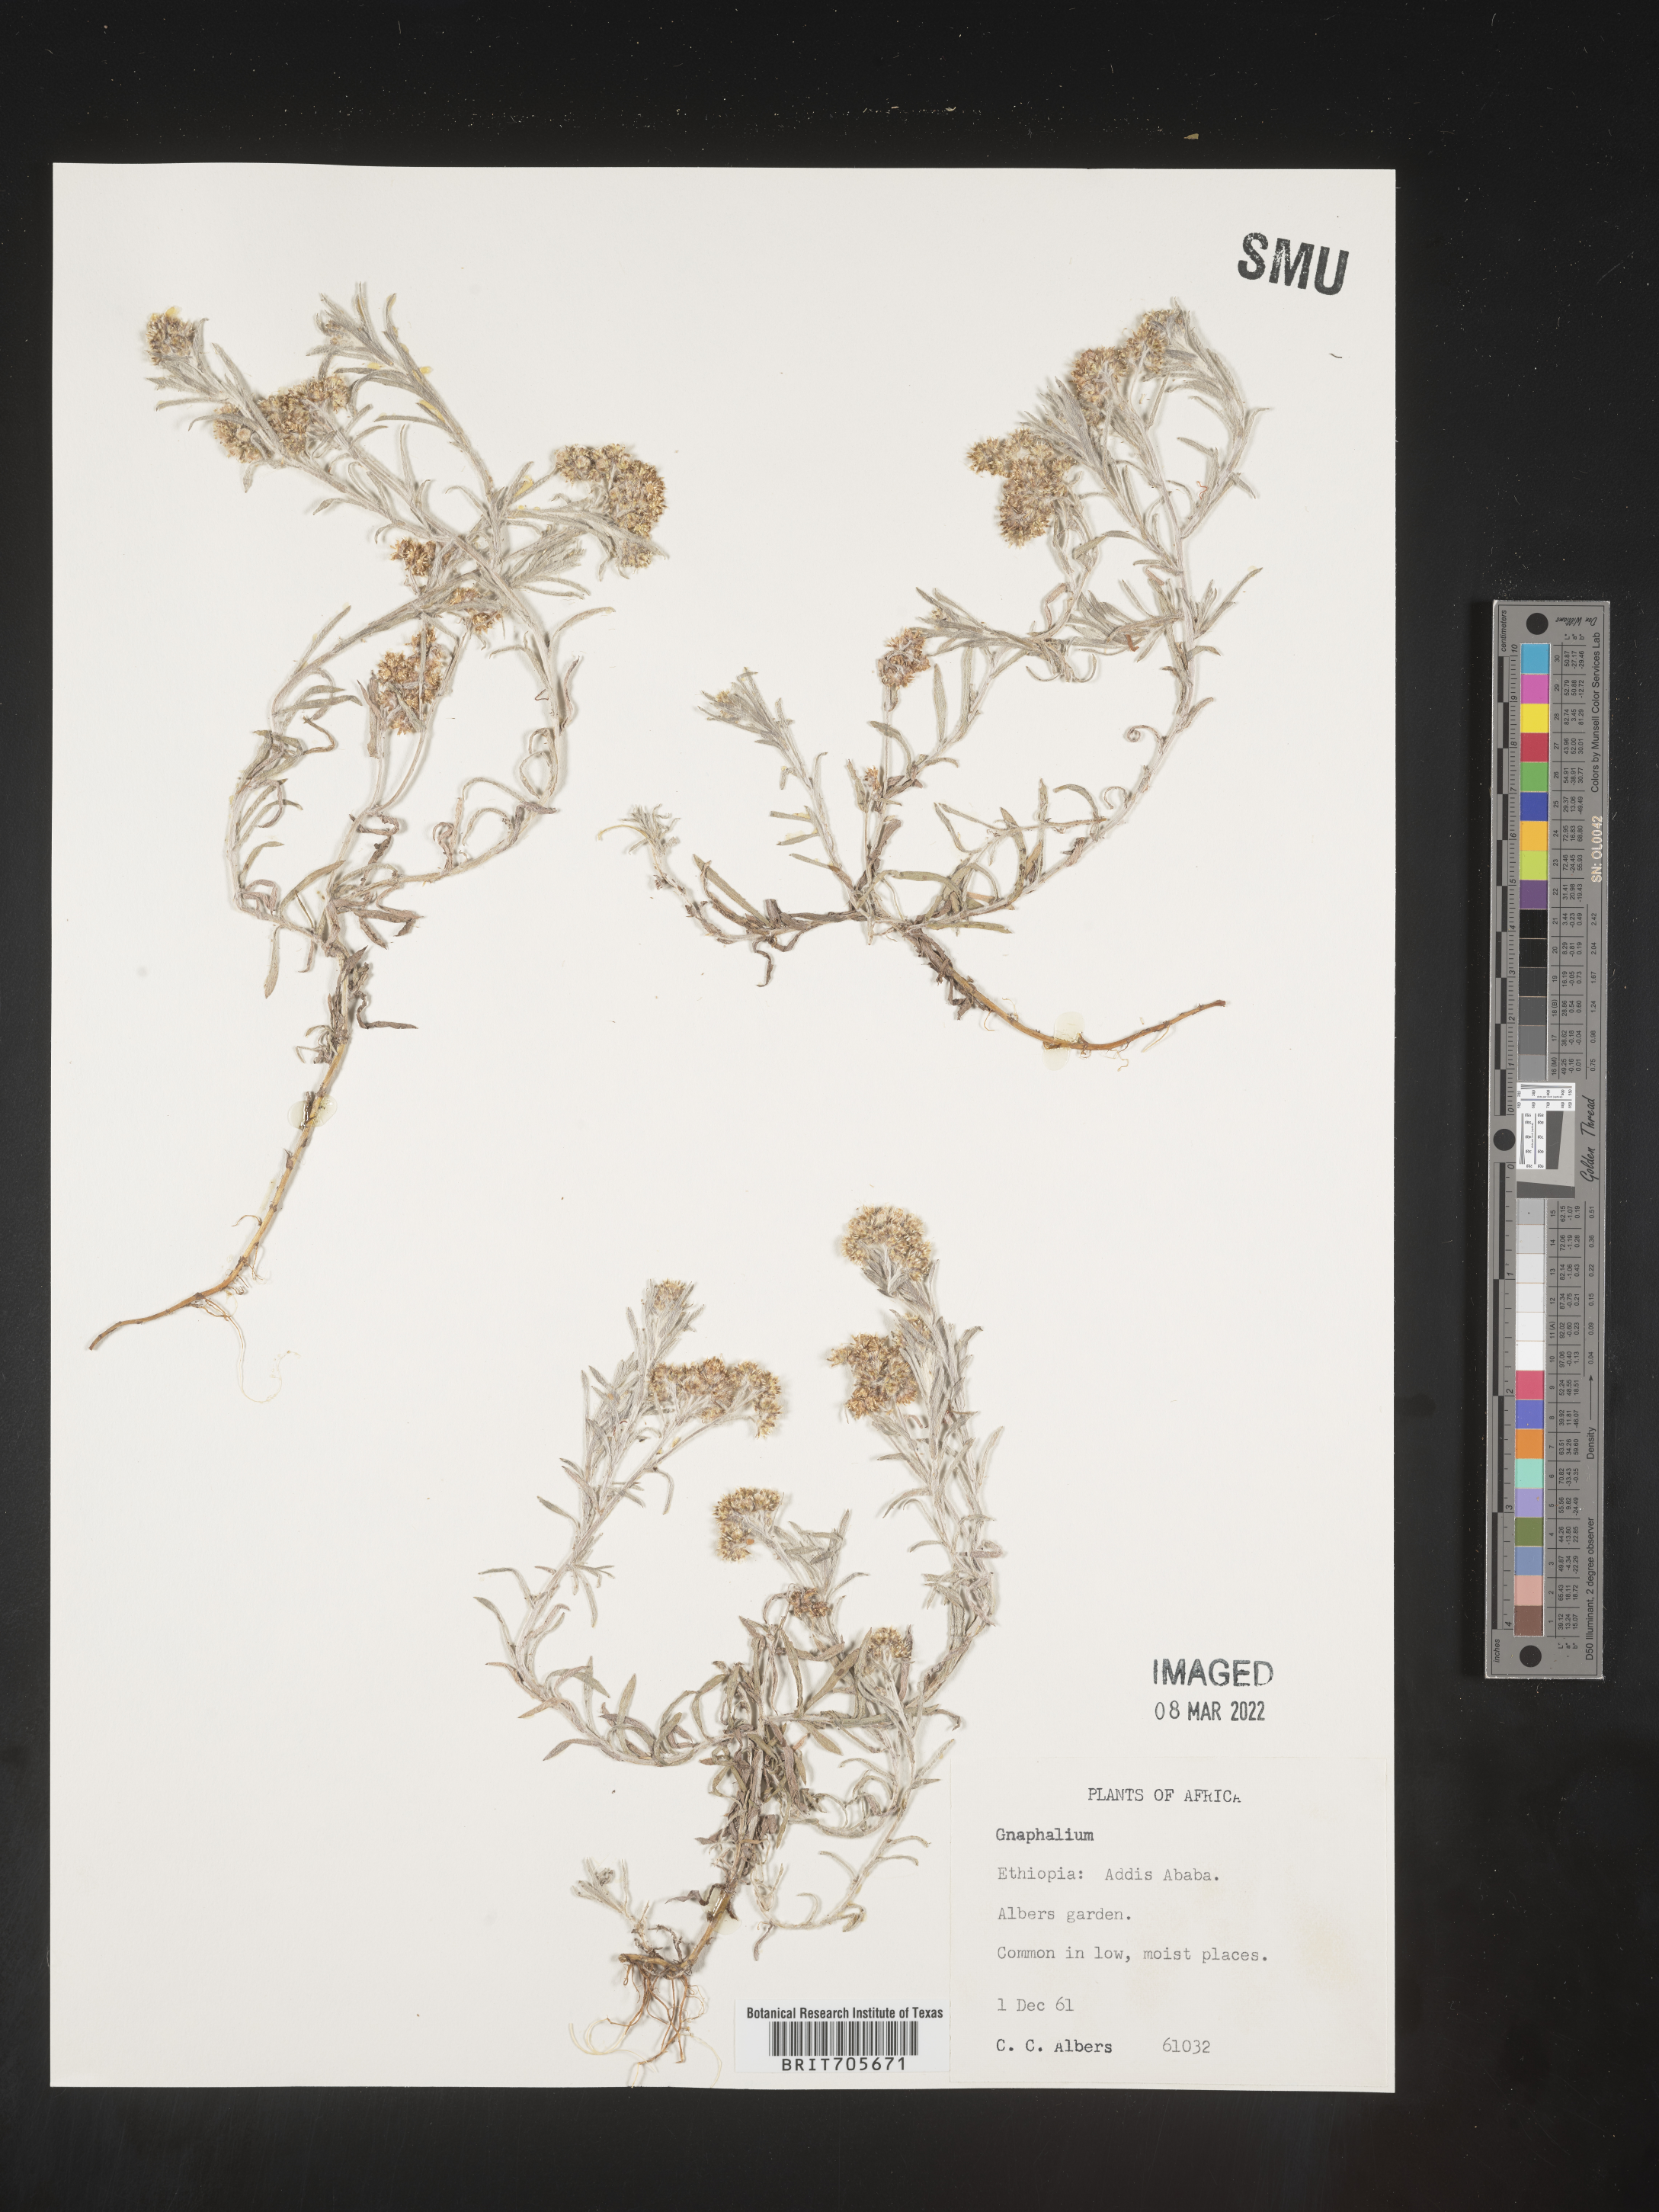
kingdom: Plantae
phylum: Tracheophyta
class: Magnoliopsida
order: Asterales
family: Asteraceae
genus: Gnaphalium
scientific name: Gnaphalium
